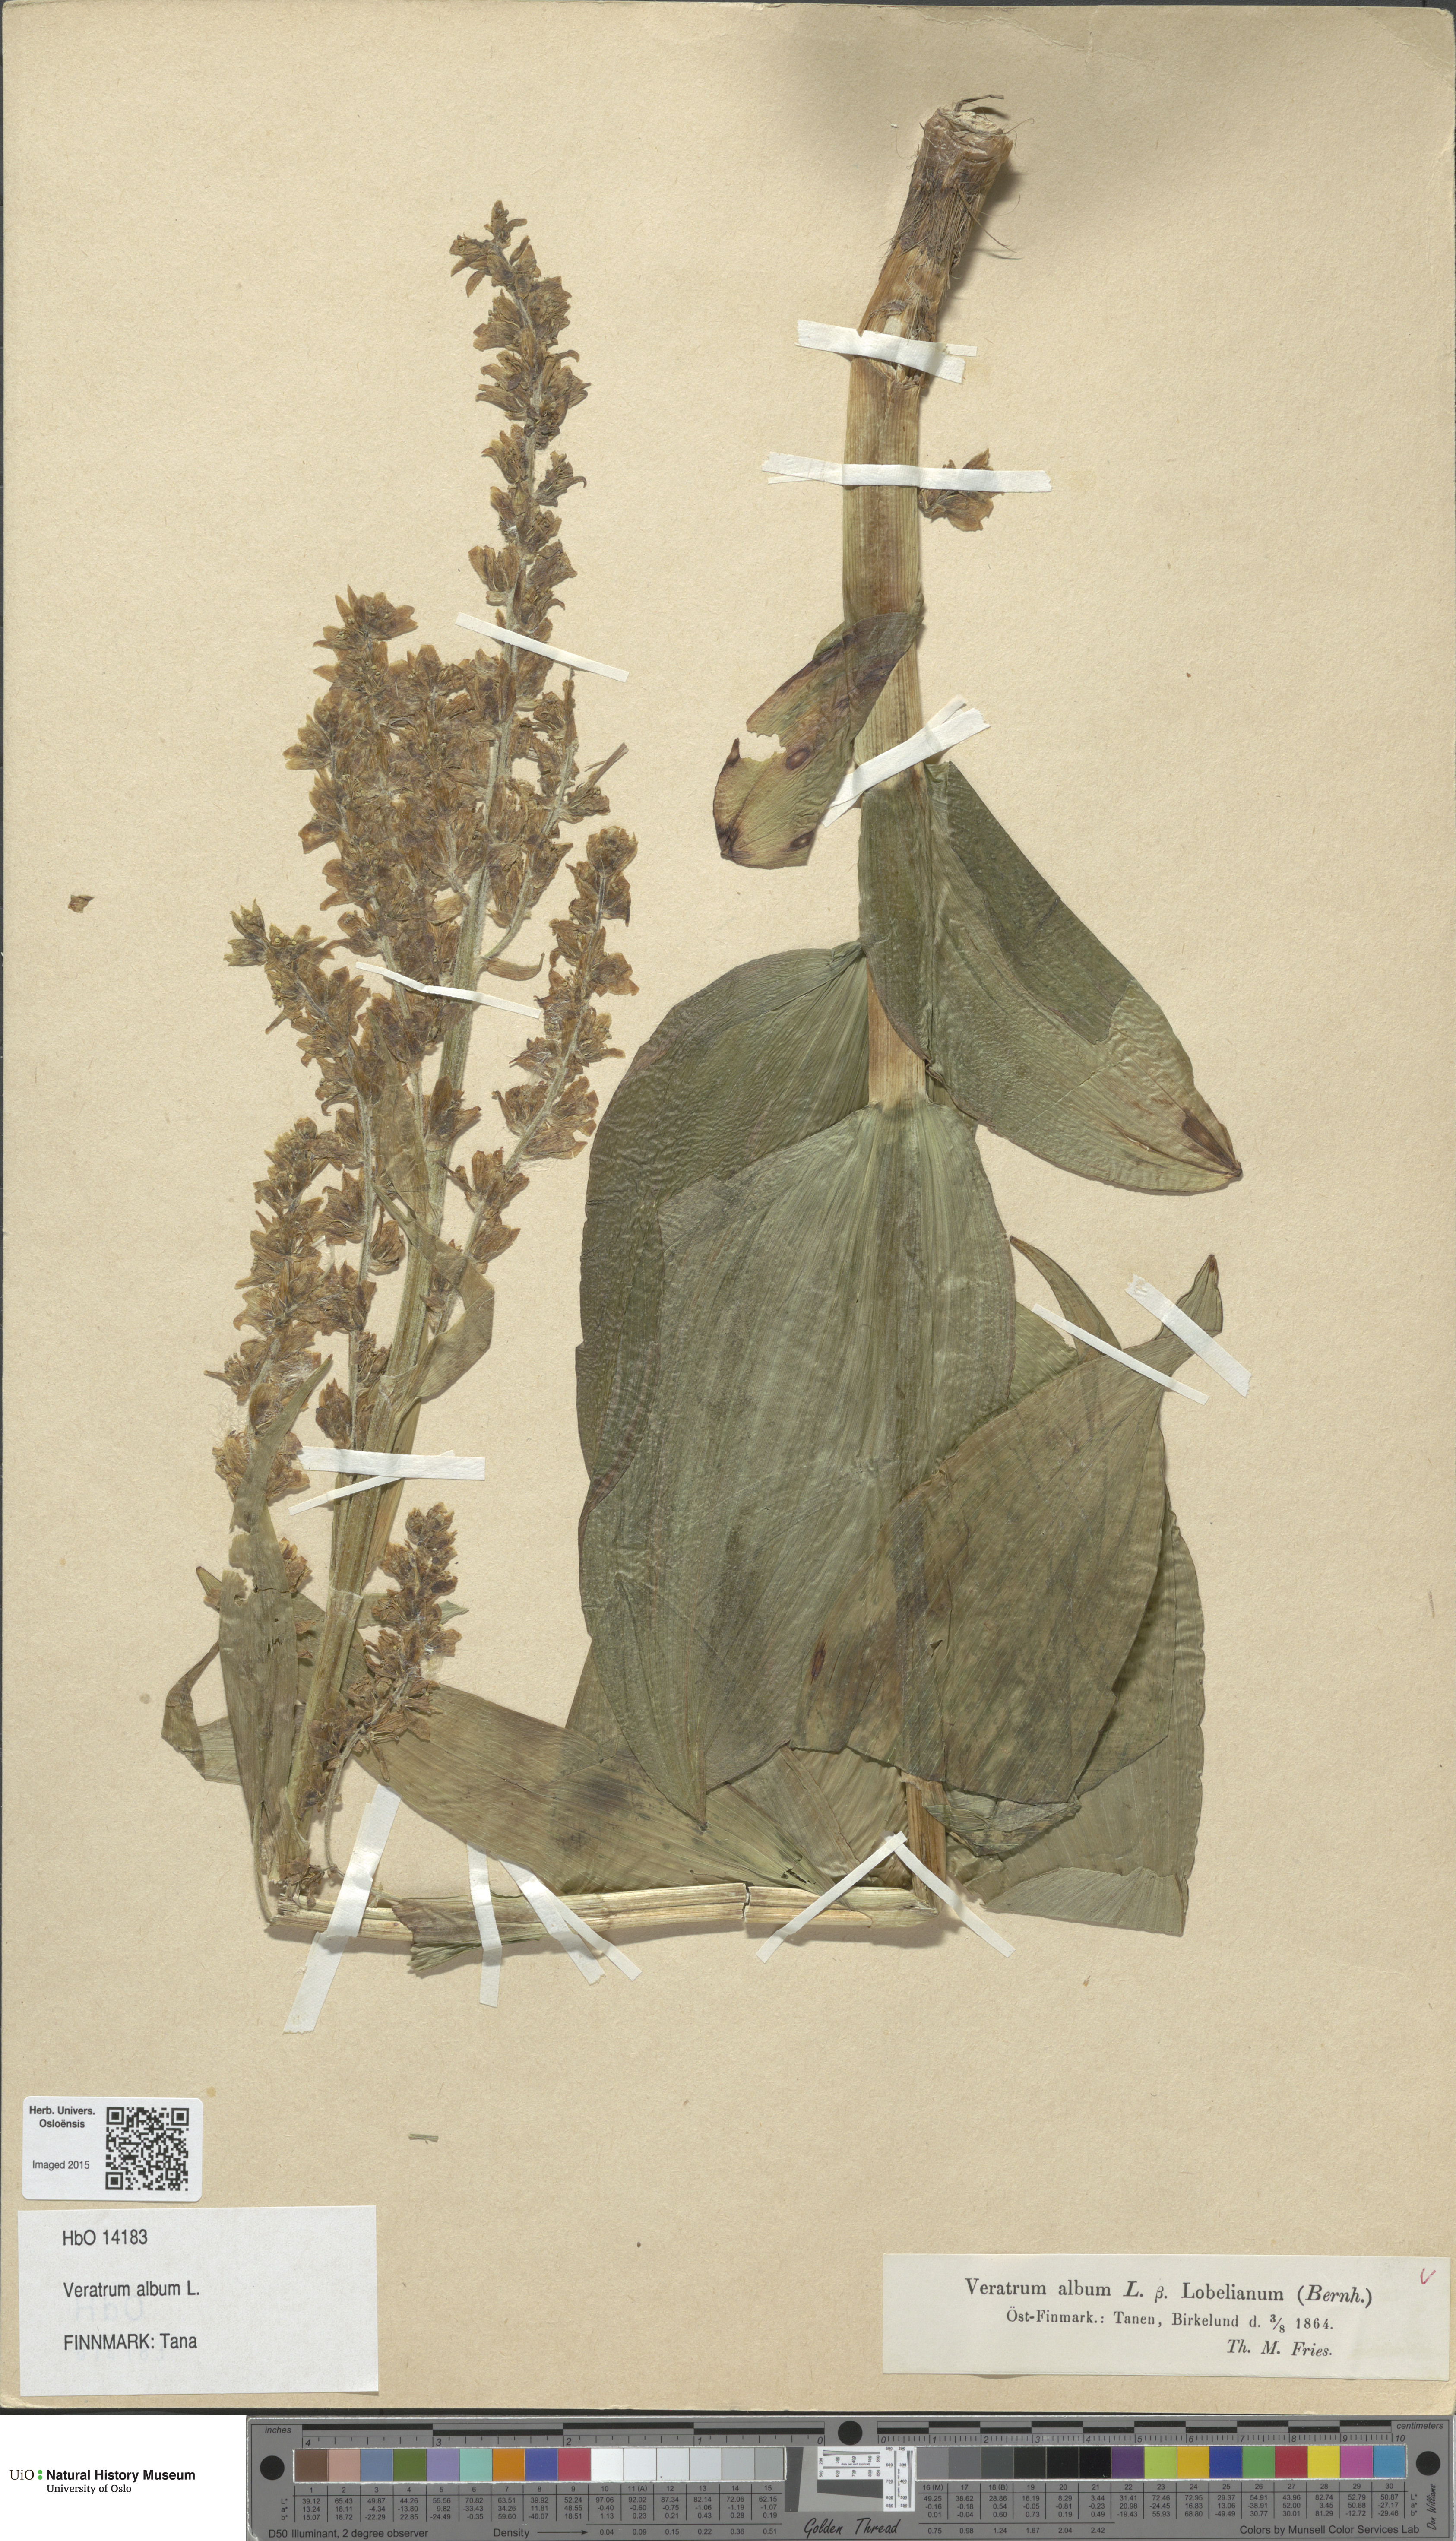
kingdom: Plantae
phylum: Tracheophyta
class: Liliopsida
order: Liliales
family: Melanthiaceae
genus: Veratrum
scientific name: Veratrum album
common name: White veratrum
